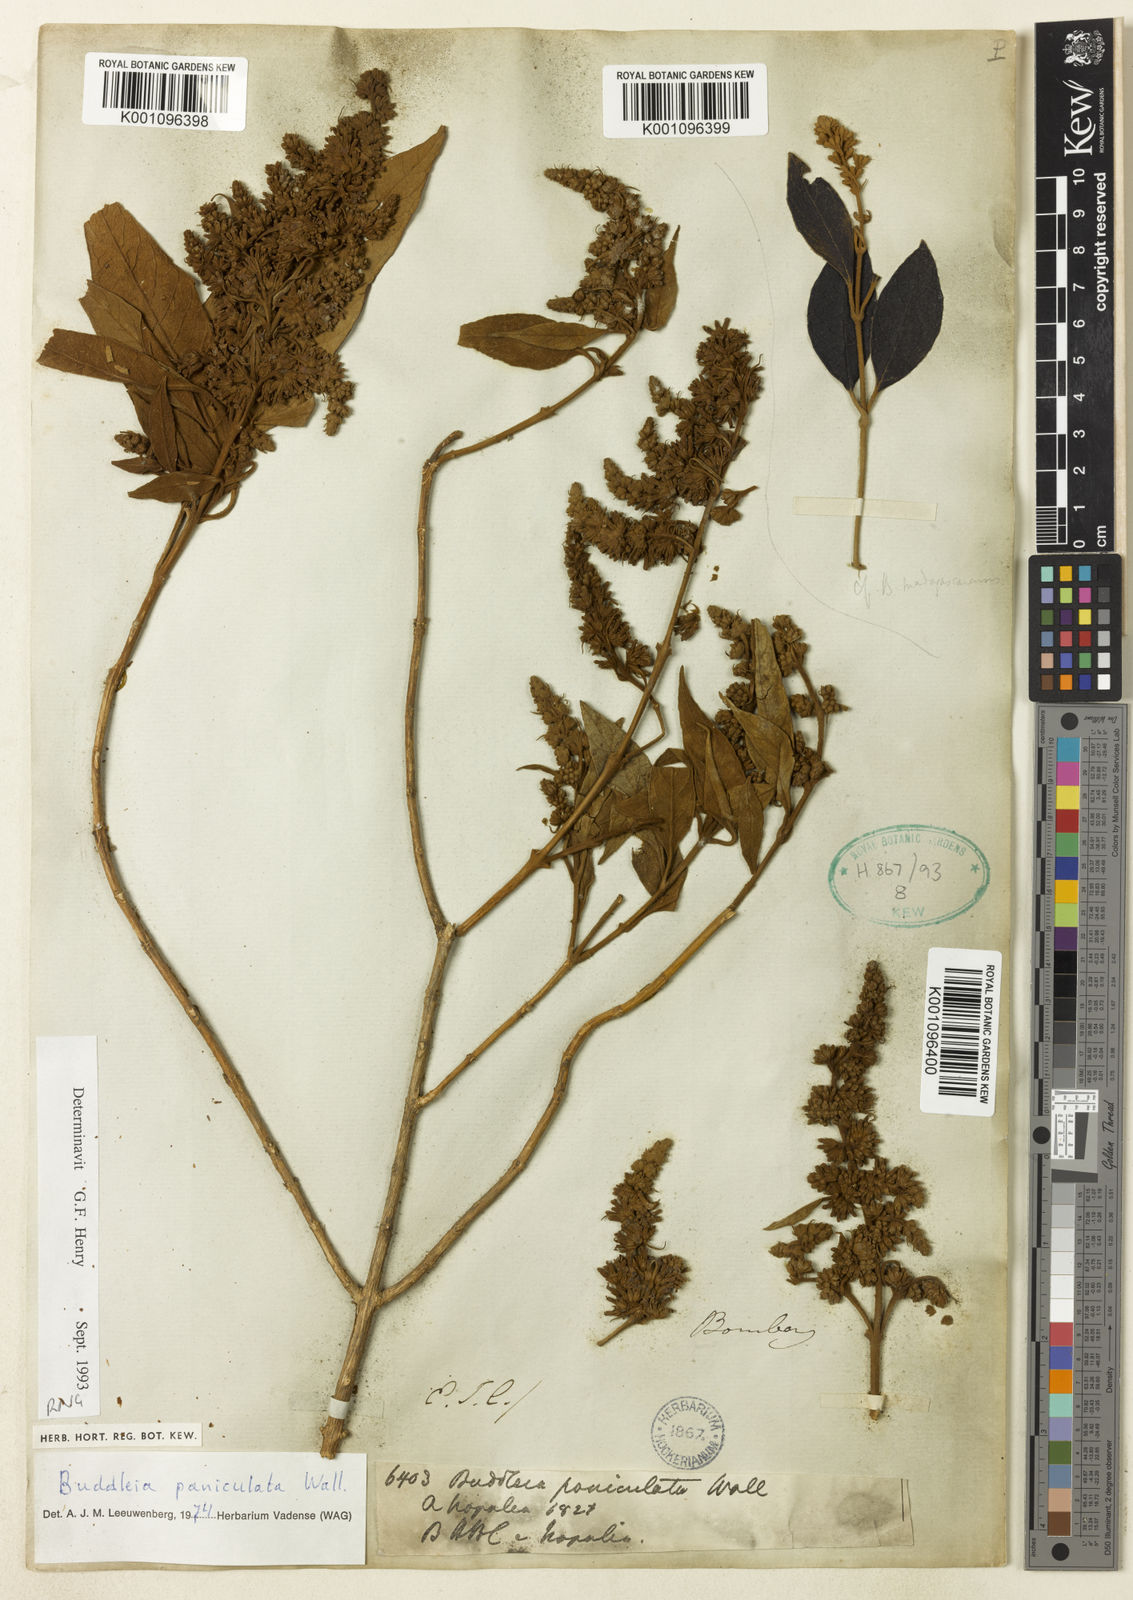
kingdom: Plantae
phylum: Tracheophyta
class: Magnoliopsida
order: Lamiales
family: Scrophulariaceae
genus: Buddleja
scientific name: Buddleja paniculata
